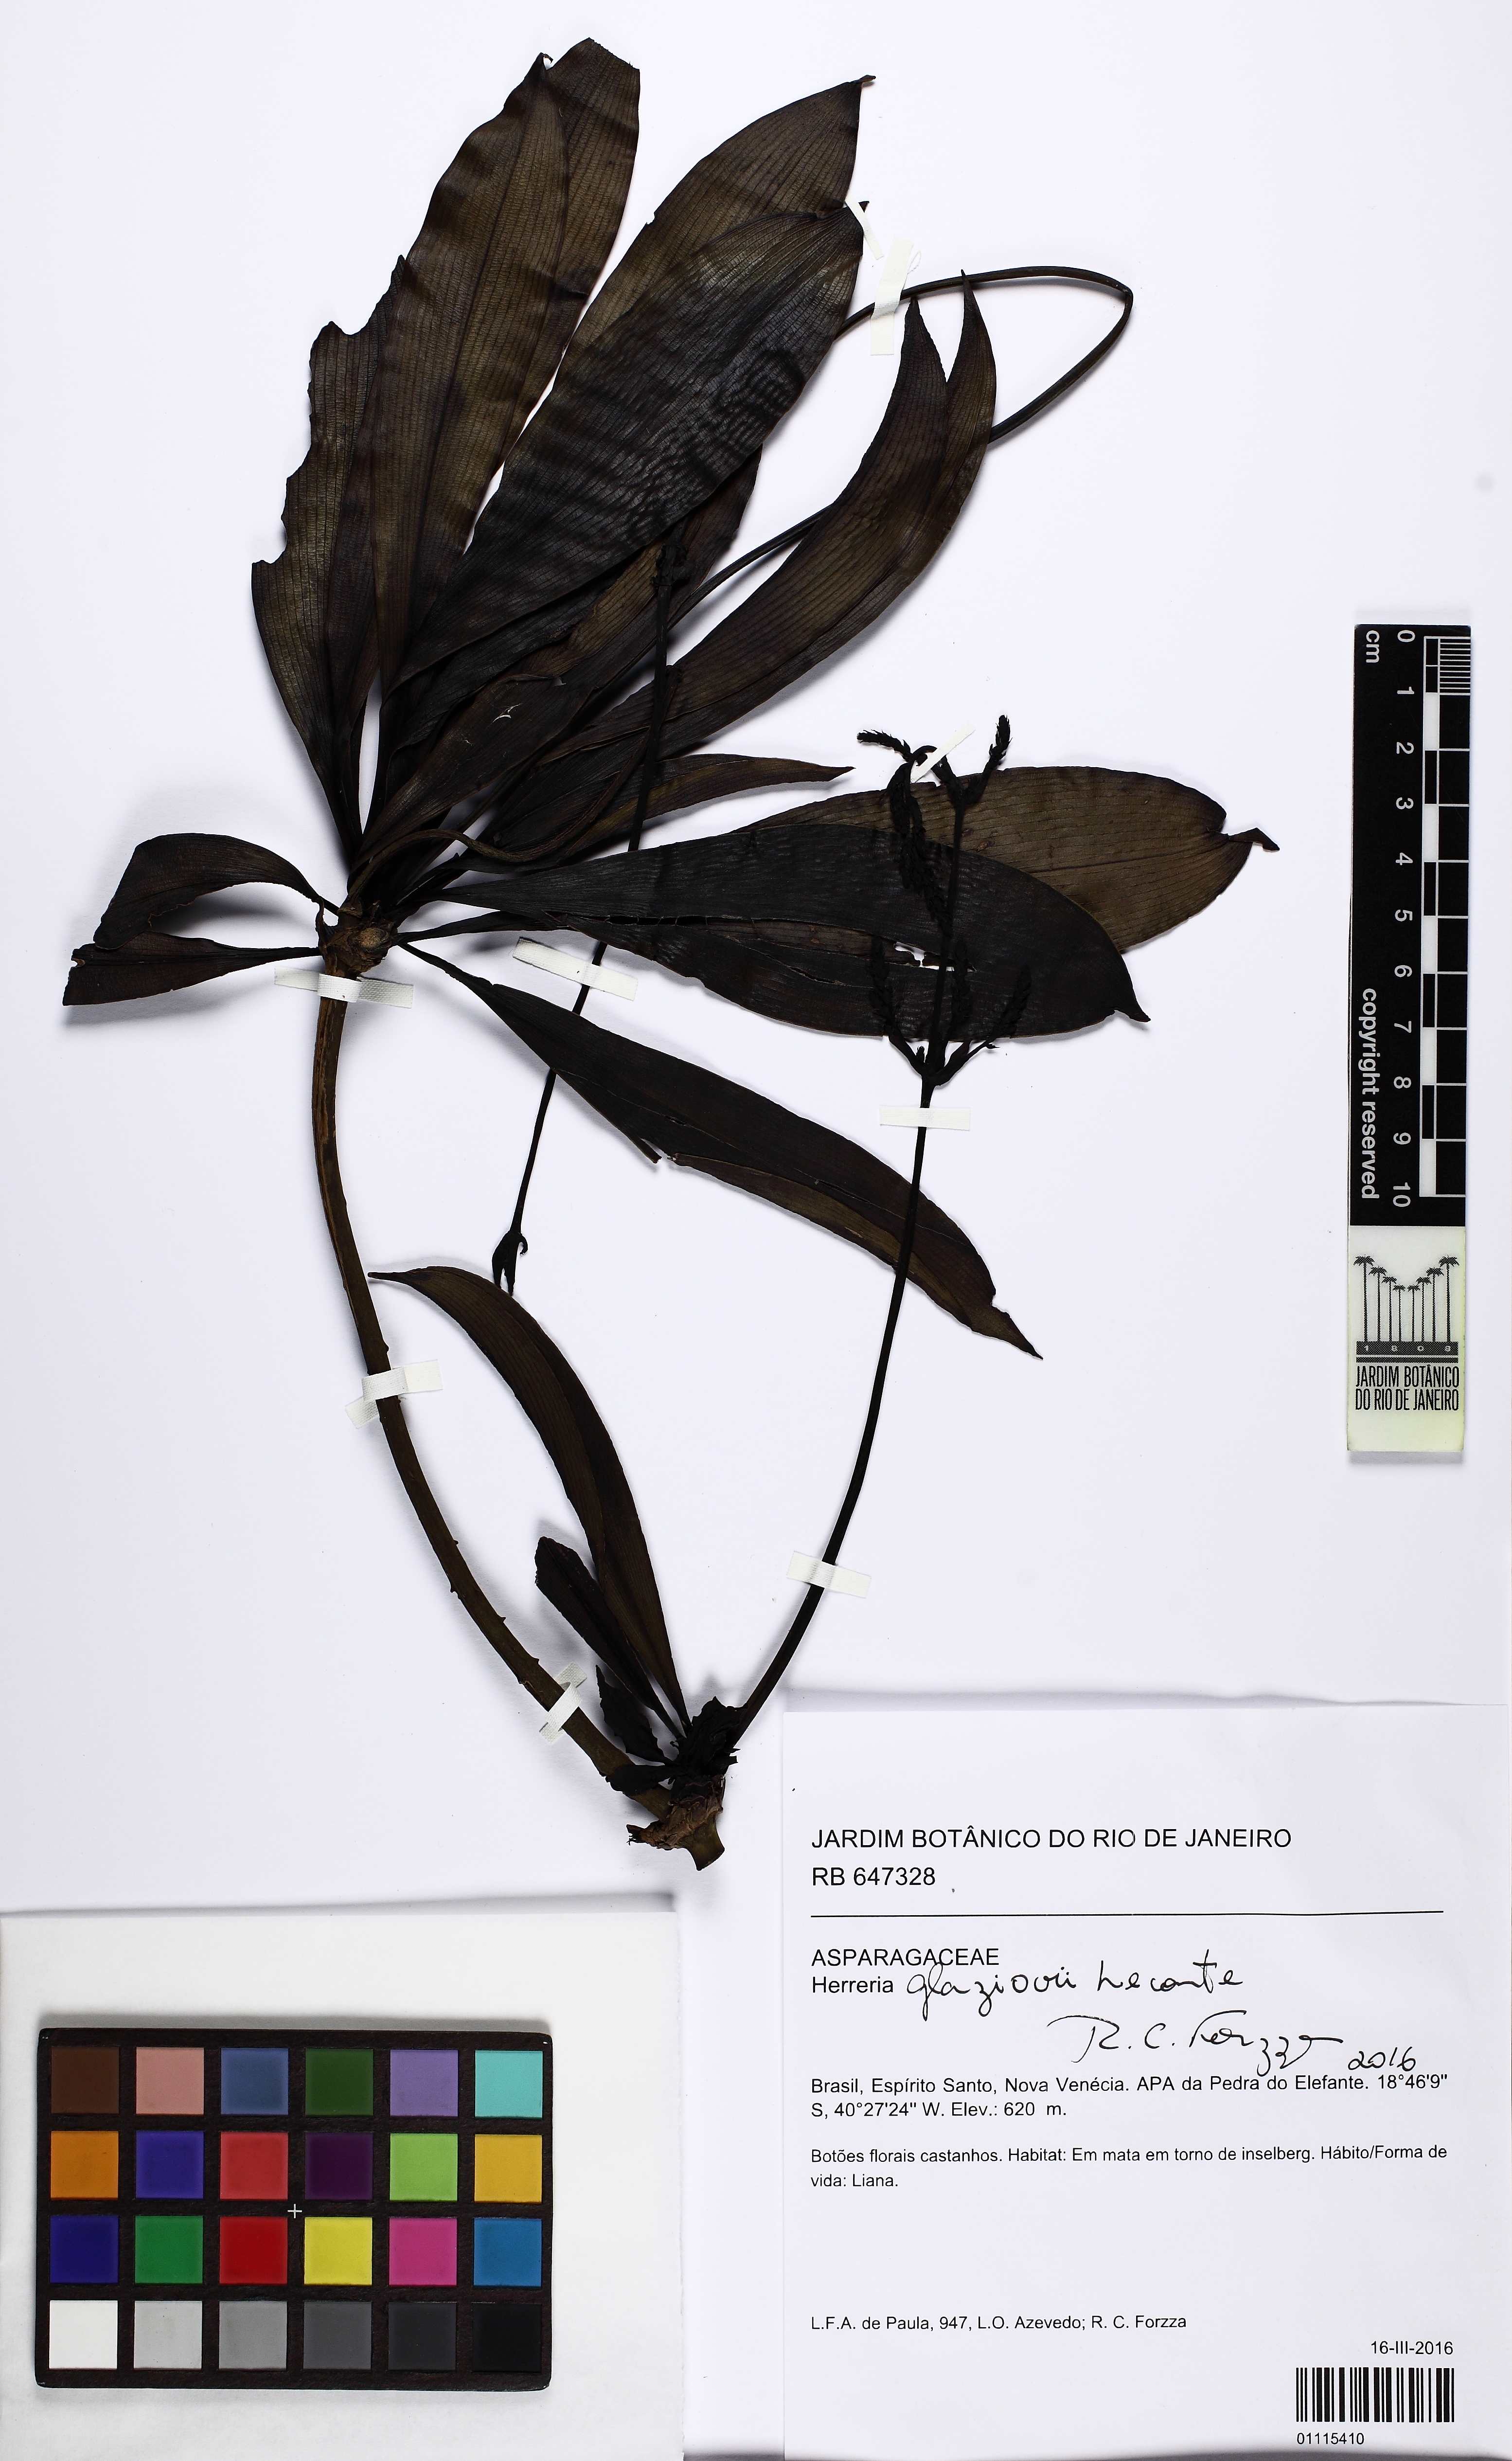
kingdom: Plantae
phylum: Tracheophyta
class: Liliopsida
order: Asparagales
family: Asparagaceae
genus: Herreria
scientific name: Herreria glaziovii
